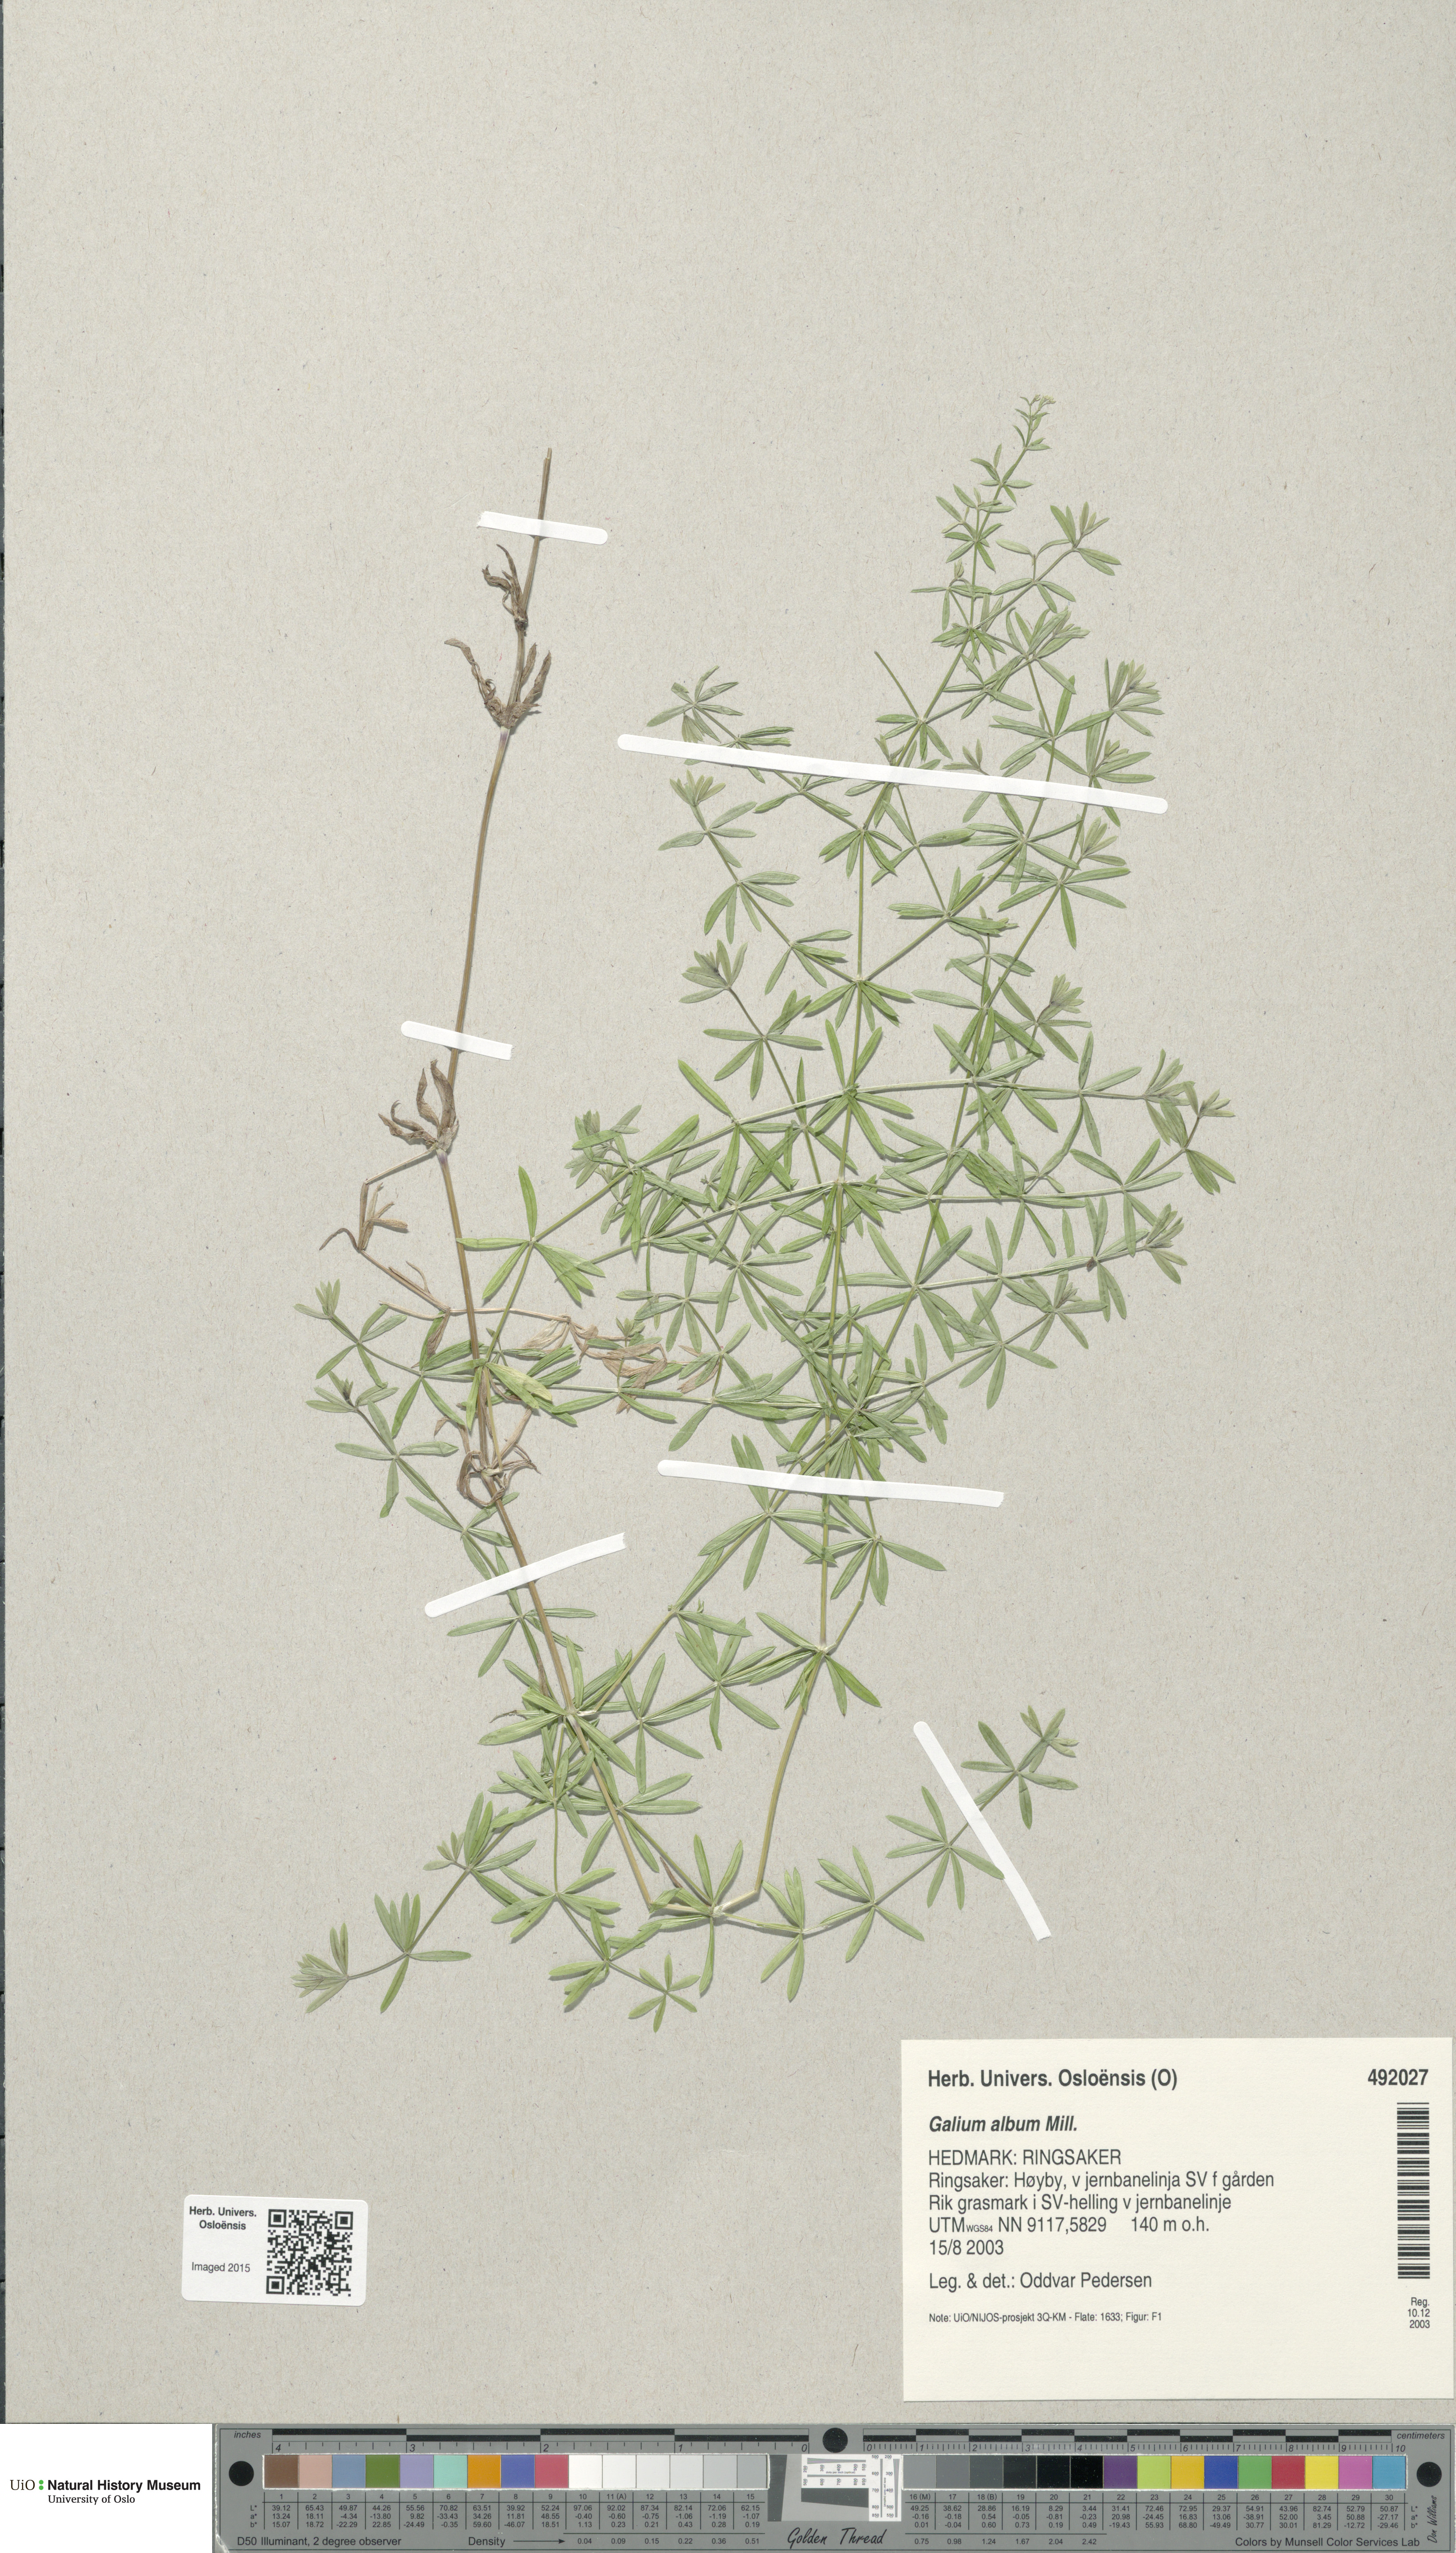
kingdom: Plantae
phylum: Tracheophyta
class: Magnoliopsida
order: Gentianales
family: Rubiaceae
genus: Galium
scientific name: Galium album
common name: White bedstraw
